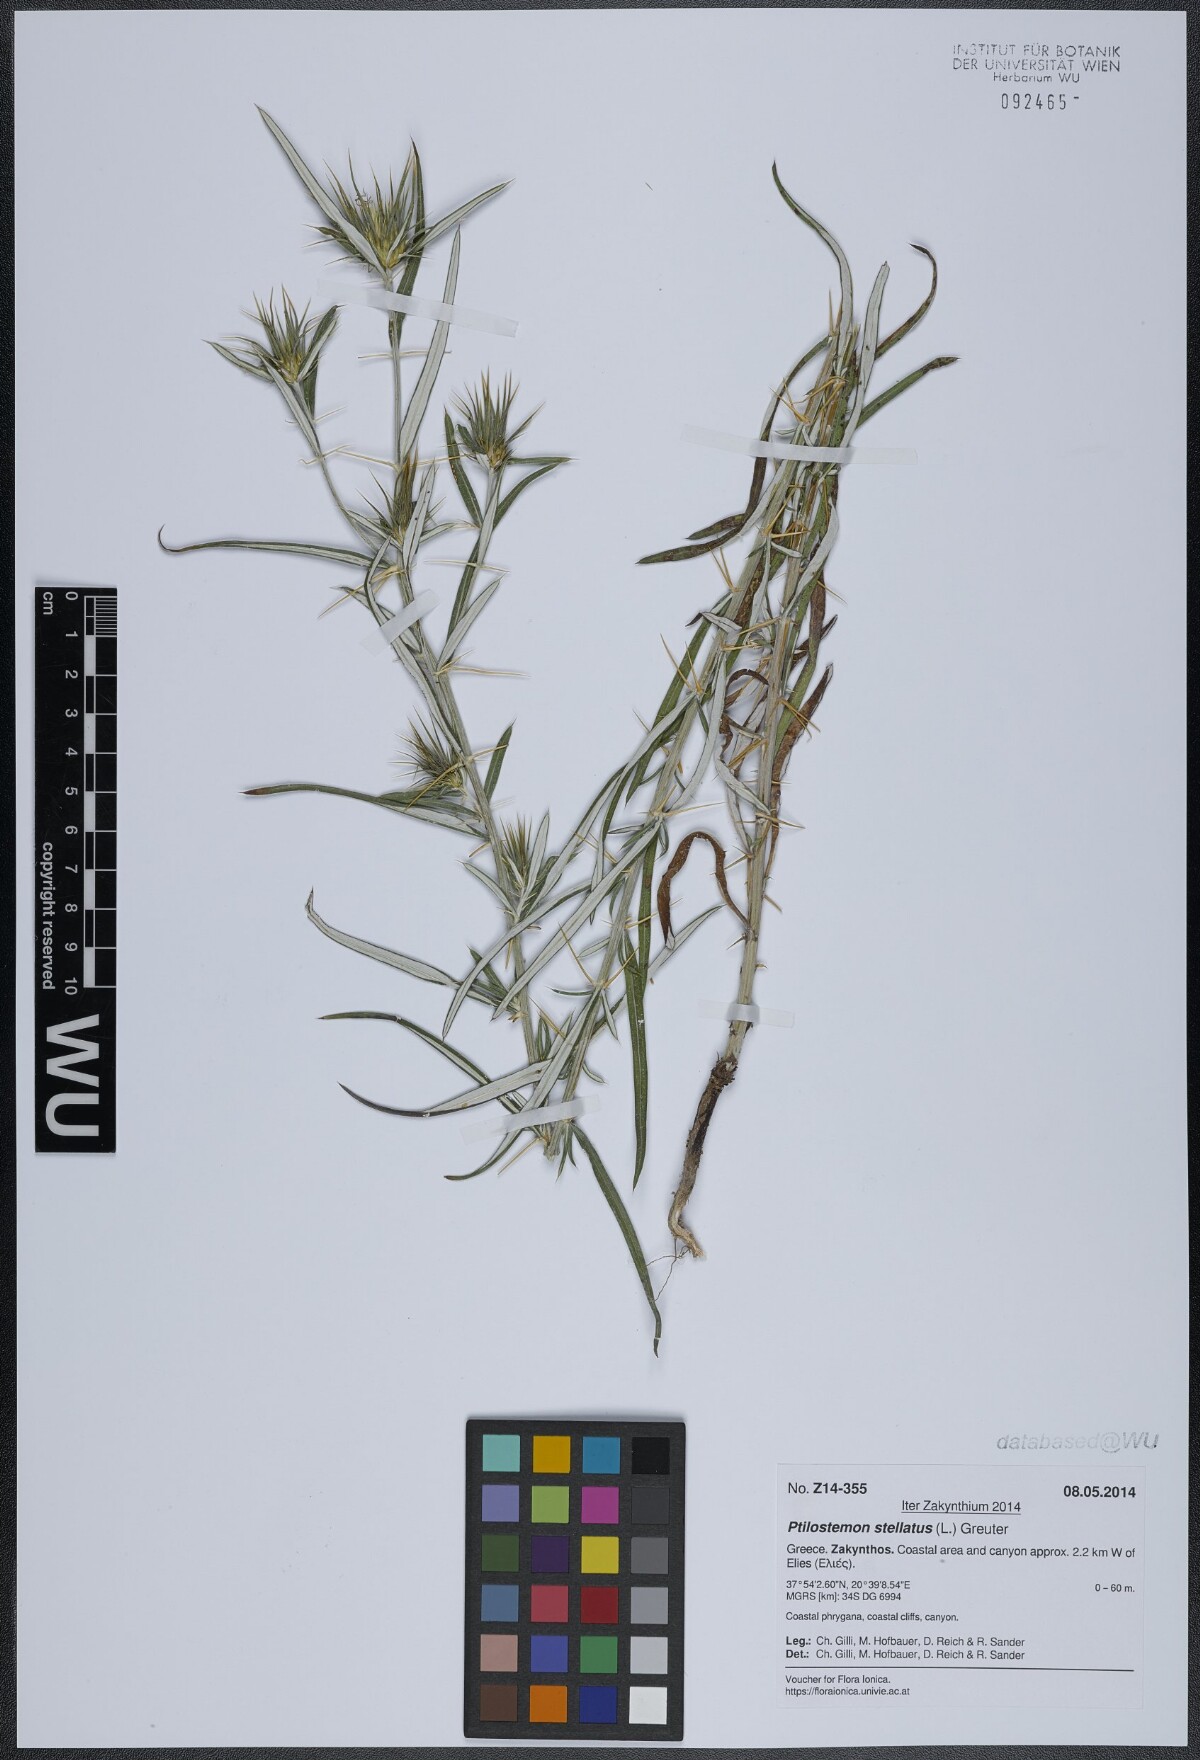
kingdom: Plantae
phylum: Tracheophyta
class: Magnoliopsida
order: Asterales
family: Asteraceae
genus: Ptilostemon
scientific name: Ptilostemon stellatus
